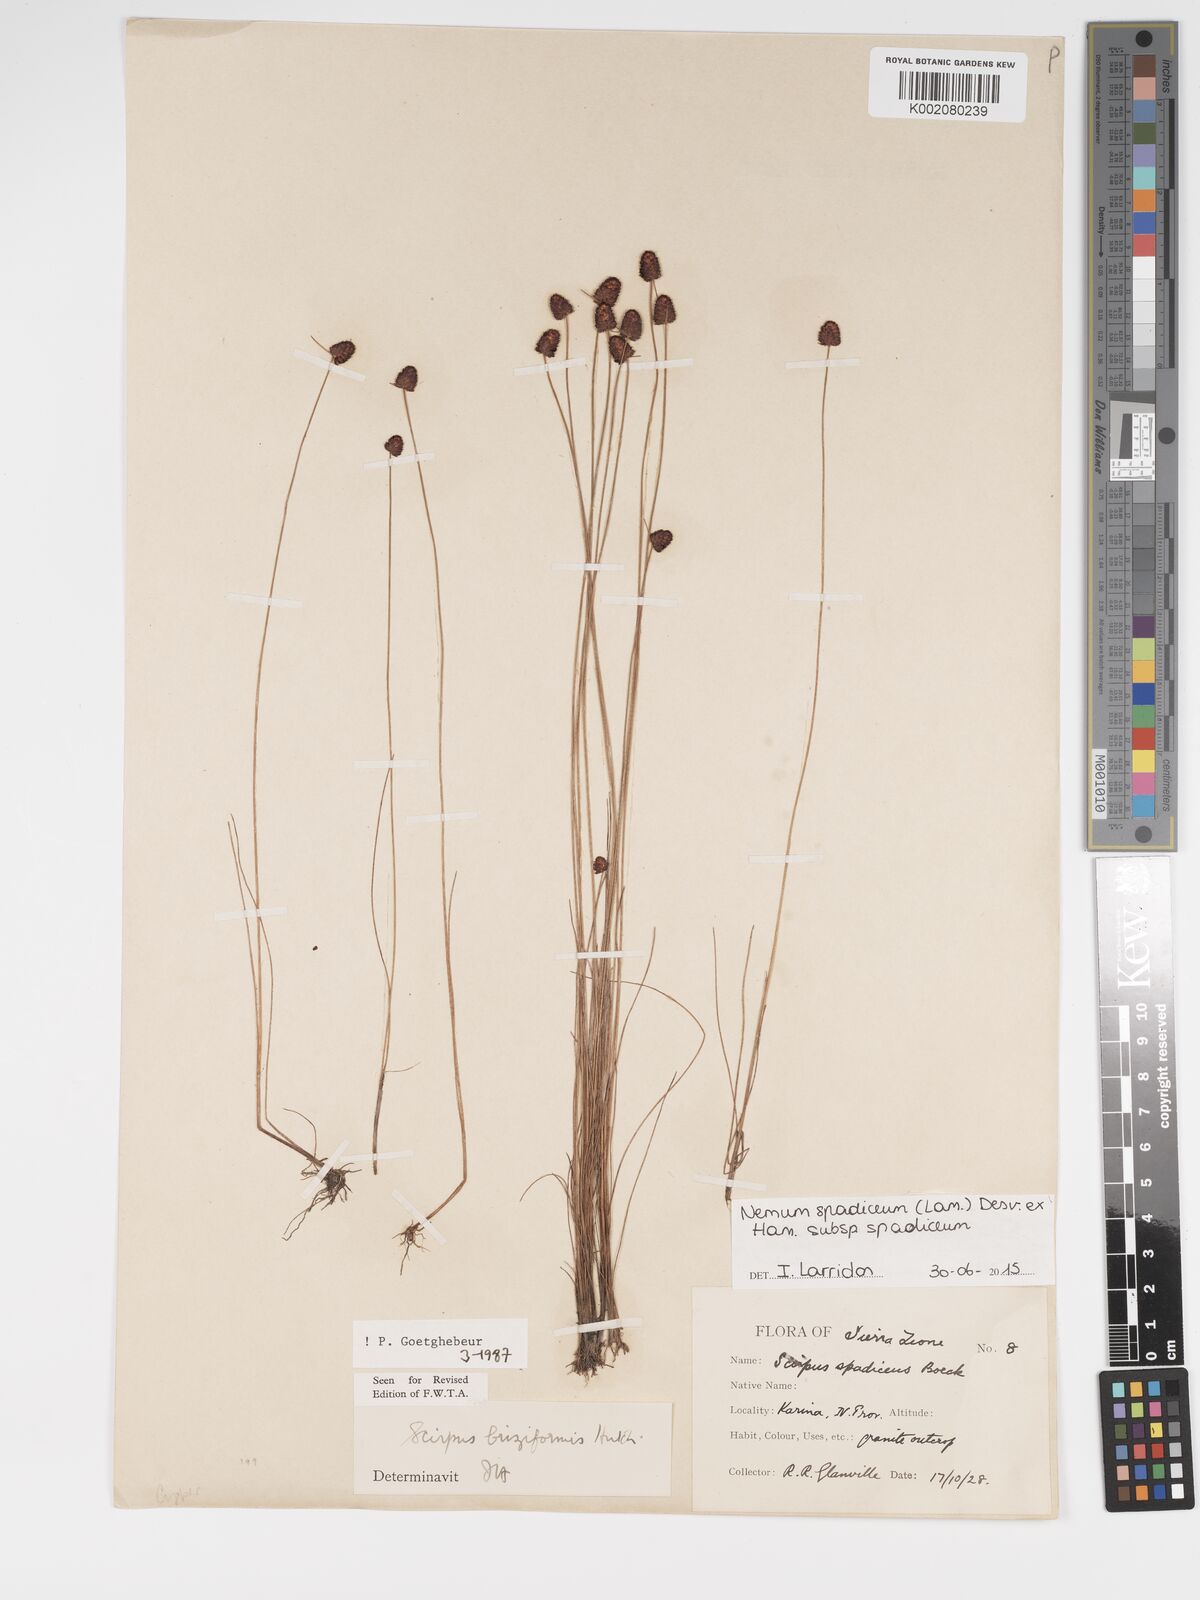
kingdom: Plantae
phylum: Tracheophyta
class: Liliopsida
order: Poales
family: Cyperaceae
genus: Bulbostylis
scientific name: Bulbostylis briziformis
